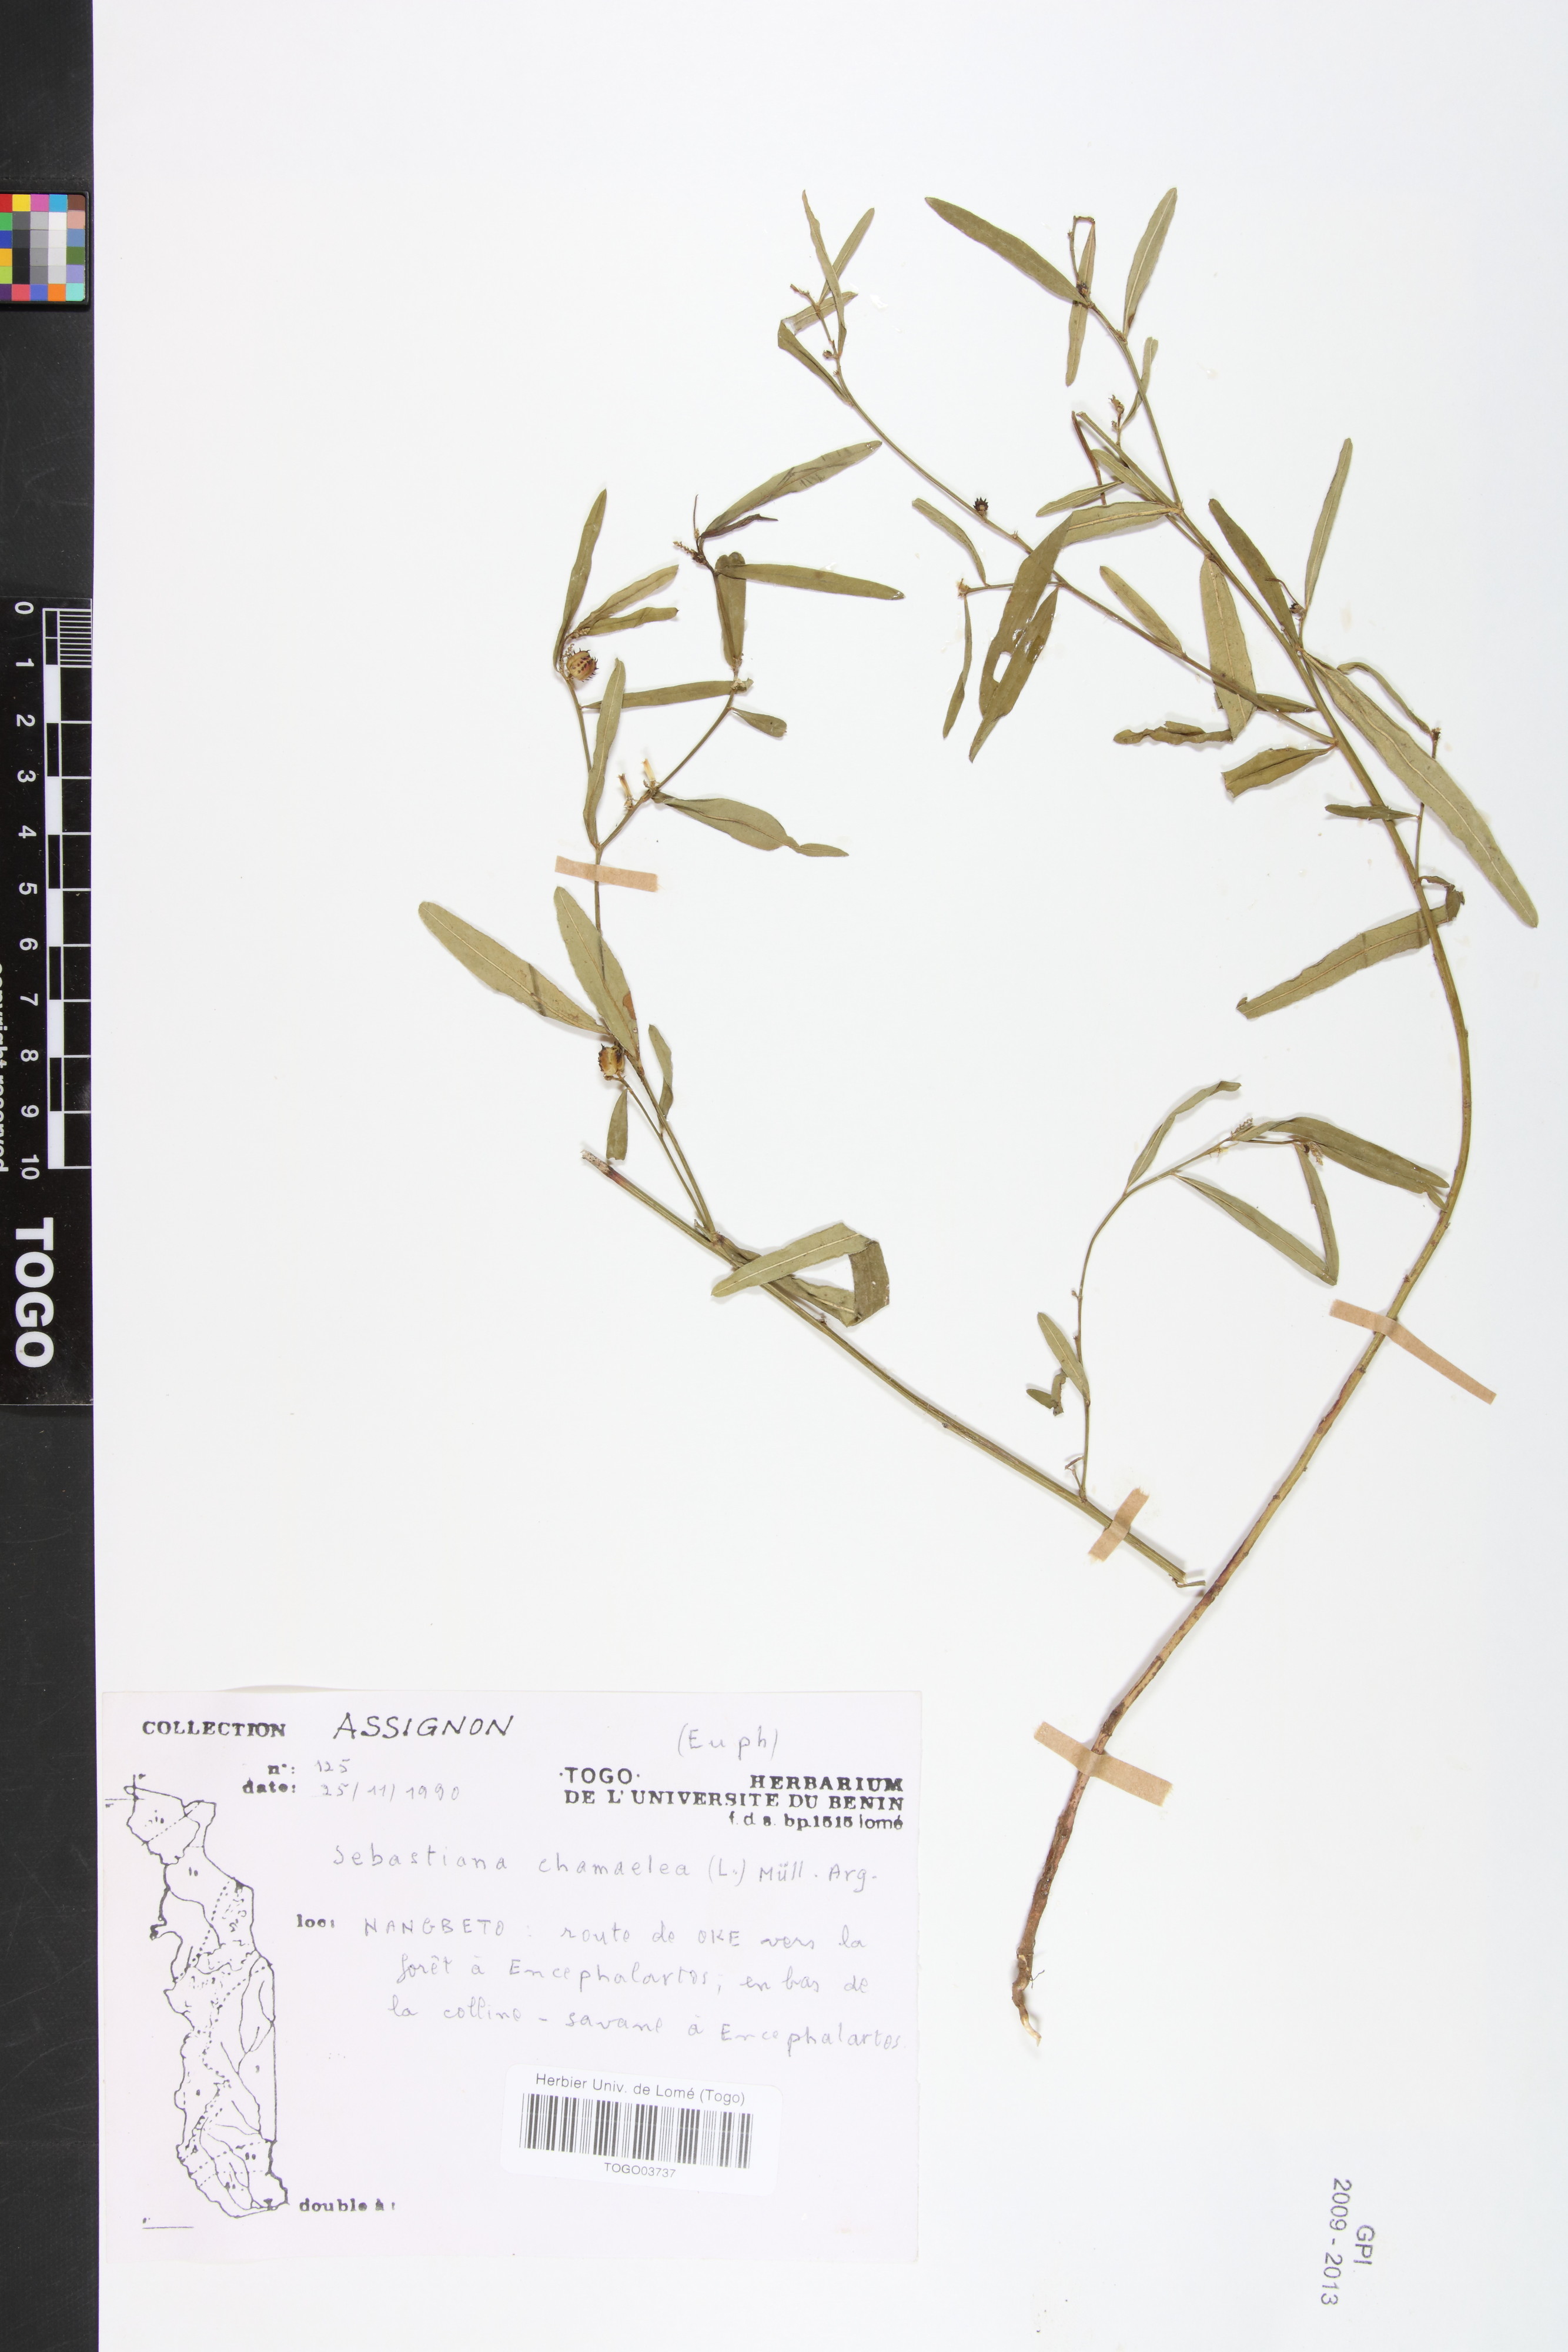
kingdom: Plantae
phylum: Tracheophyta
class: Magnoliopsida
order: Malpighiales
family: Euphorbiaceae
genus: Microstachys
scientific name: Microstachys chamaelea
